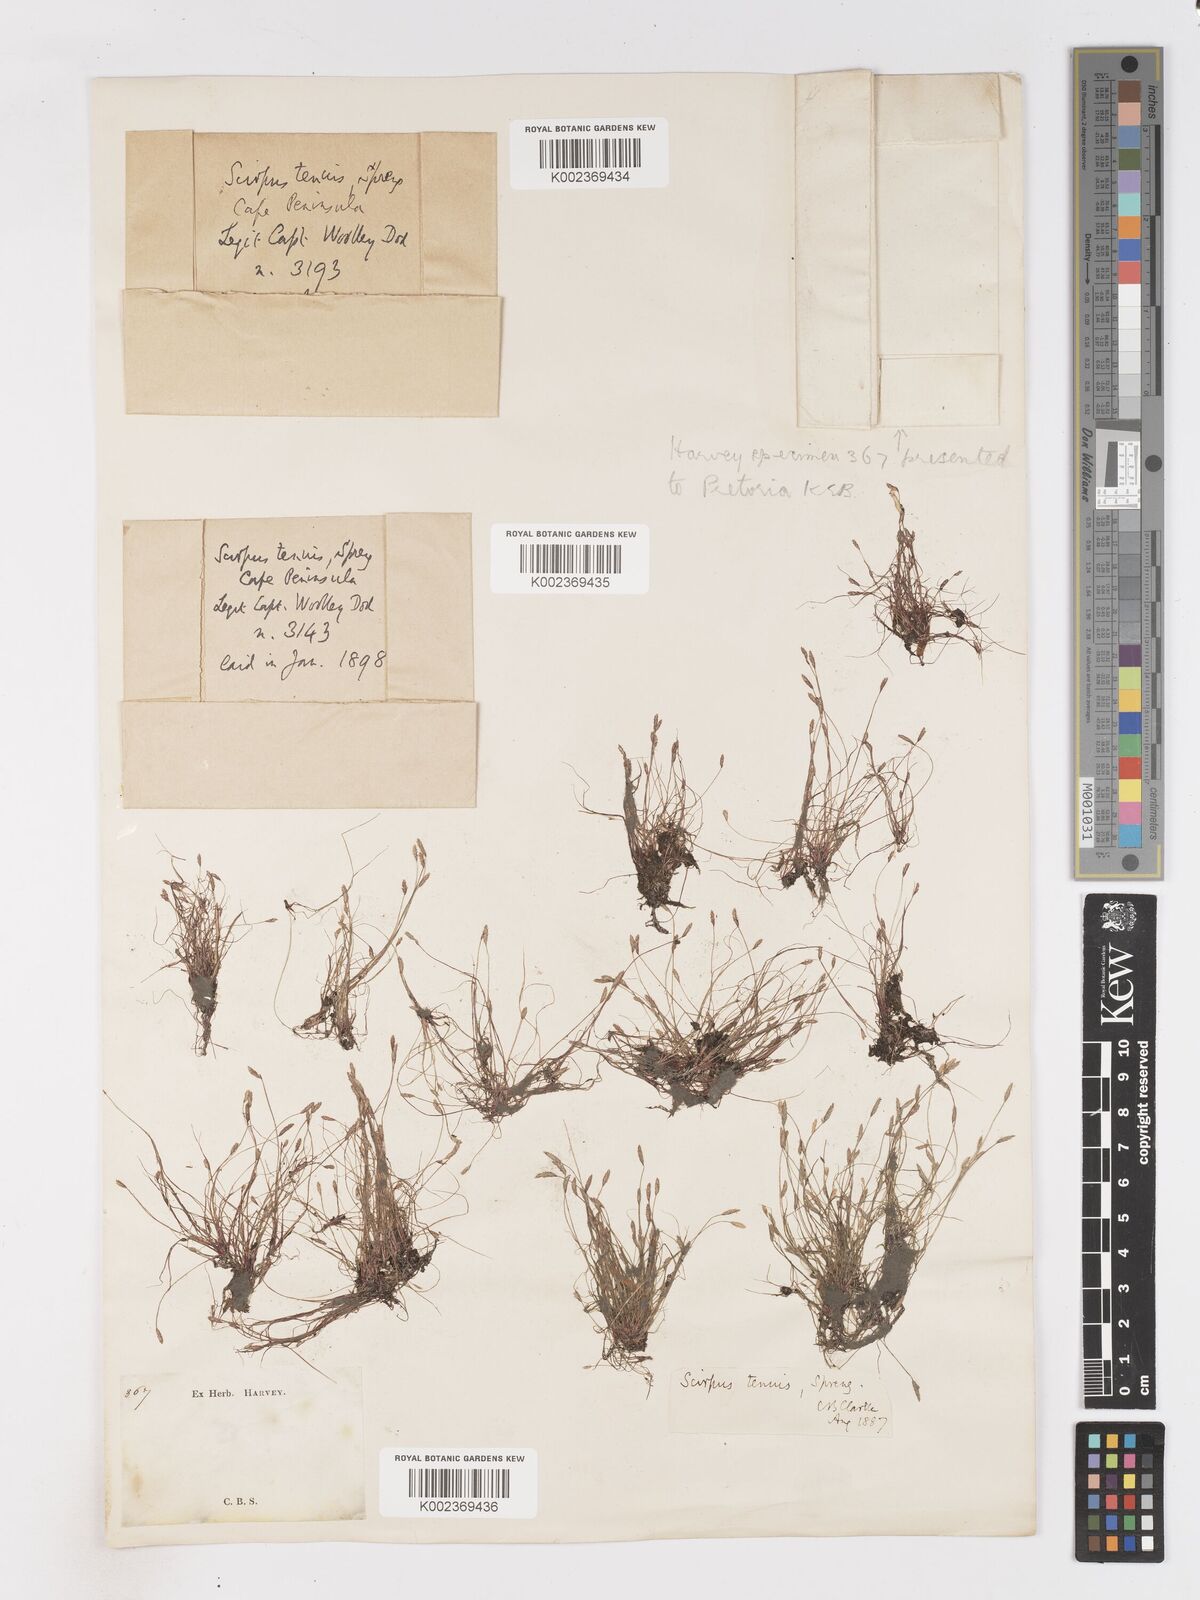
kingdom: Plantae
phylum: Tracheophyta
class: Liliopsida
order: Poales
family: Cyperaceae
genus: Isolepis
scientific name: Isolepis tenuissima
